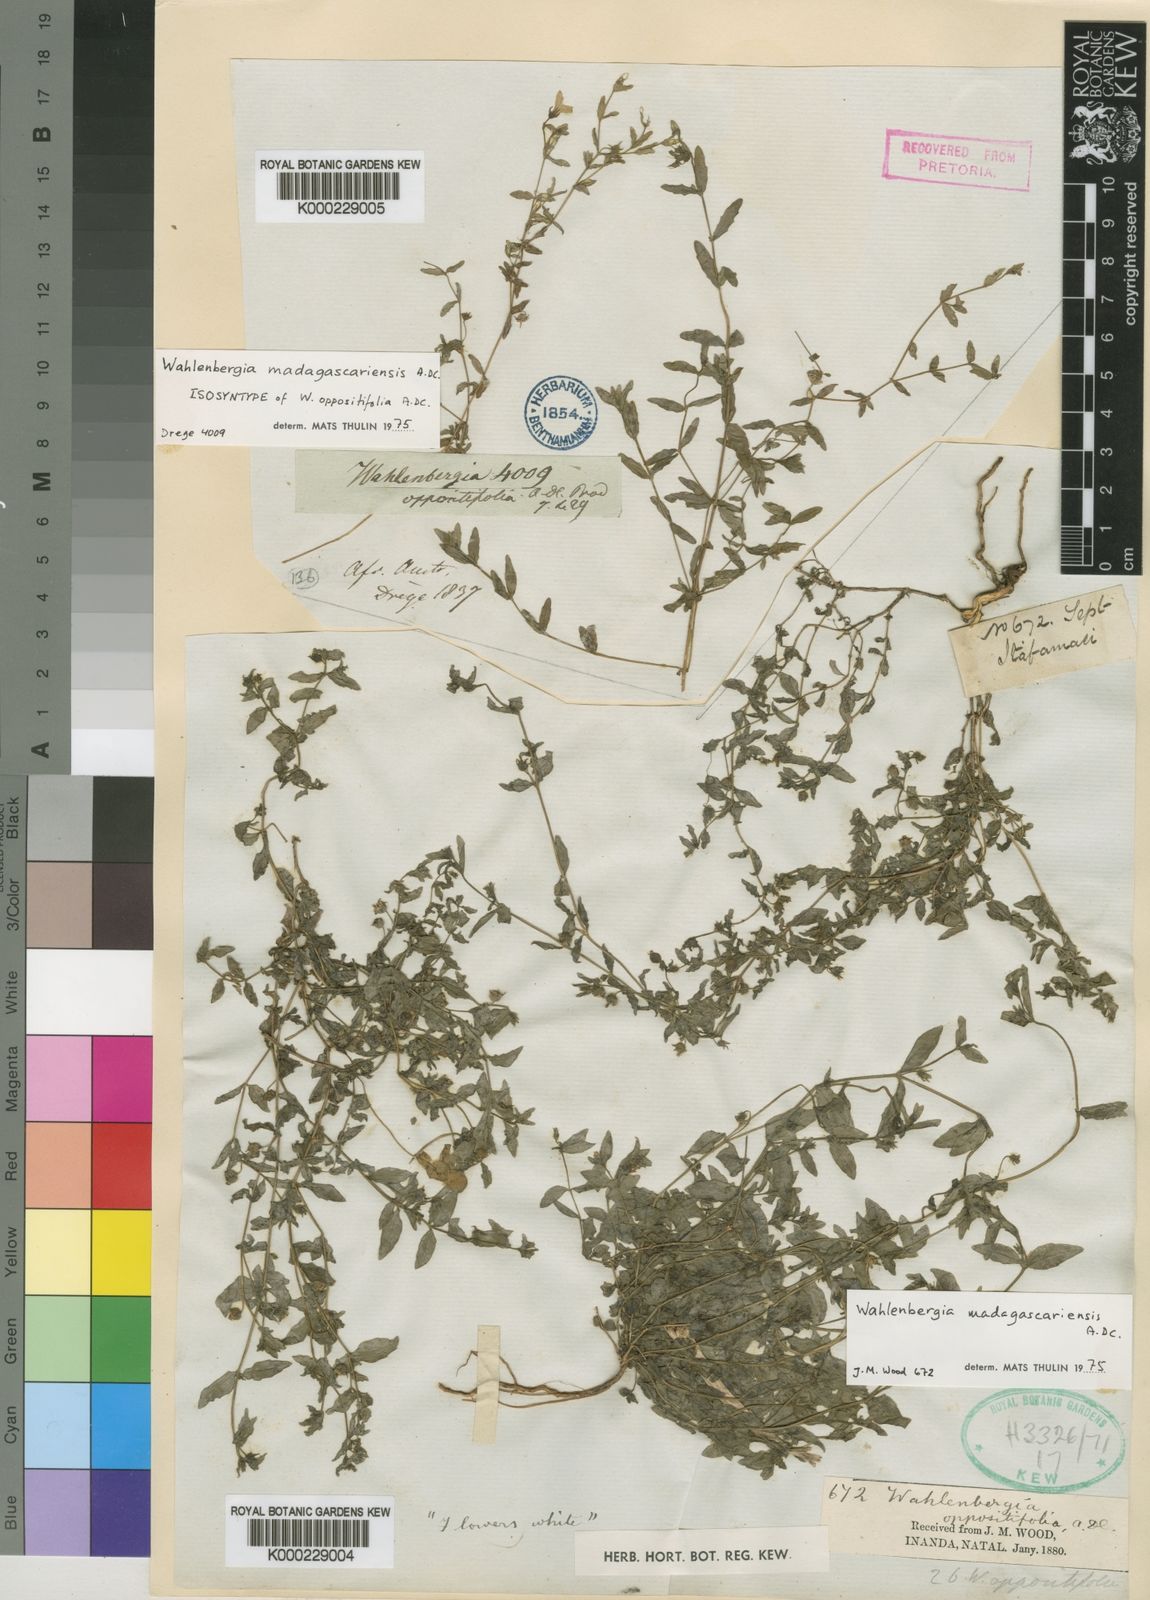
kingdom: Plantae
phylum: Tracheophyta
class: Magnoliopsida
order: Asterales
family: Campanulaceae
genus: Wahlenbergia
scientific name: Wahlenbergia madagascariensis
